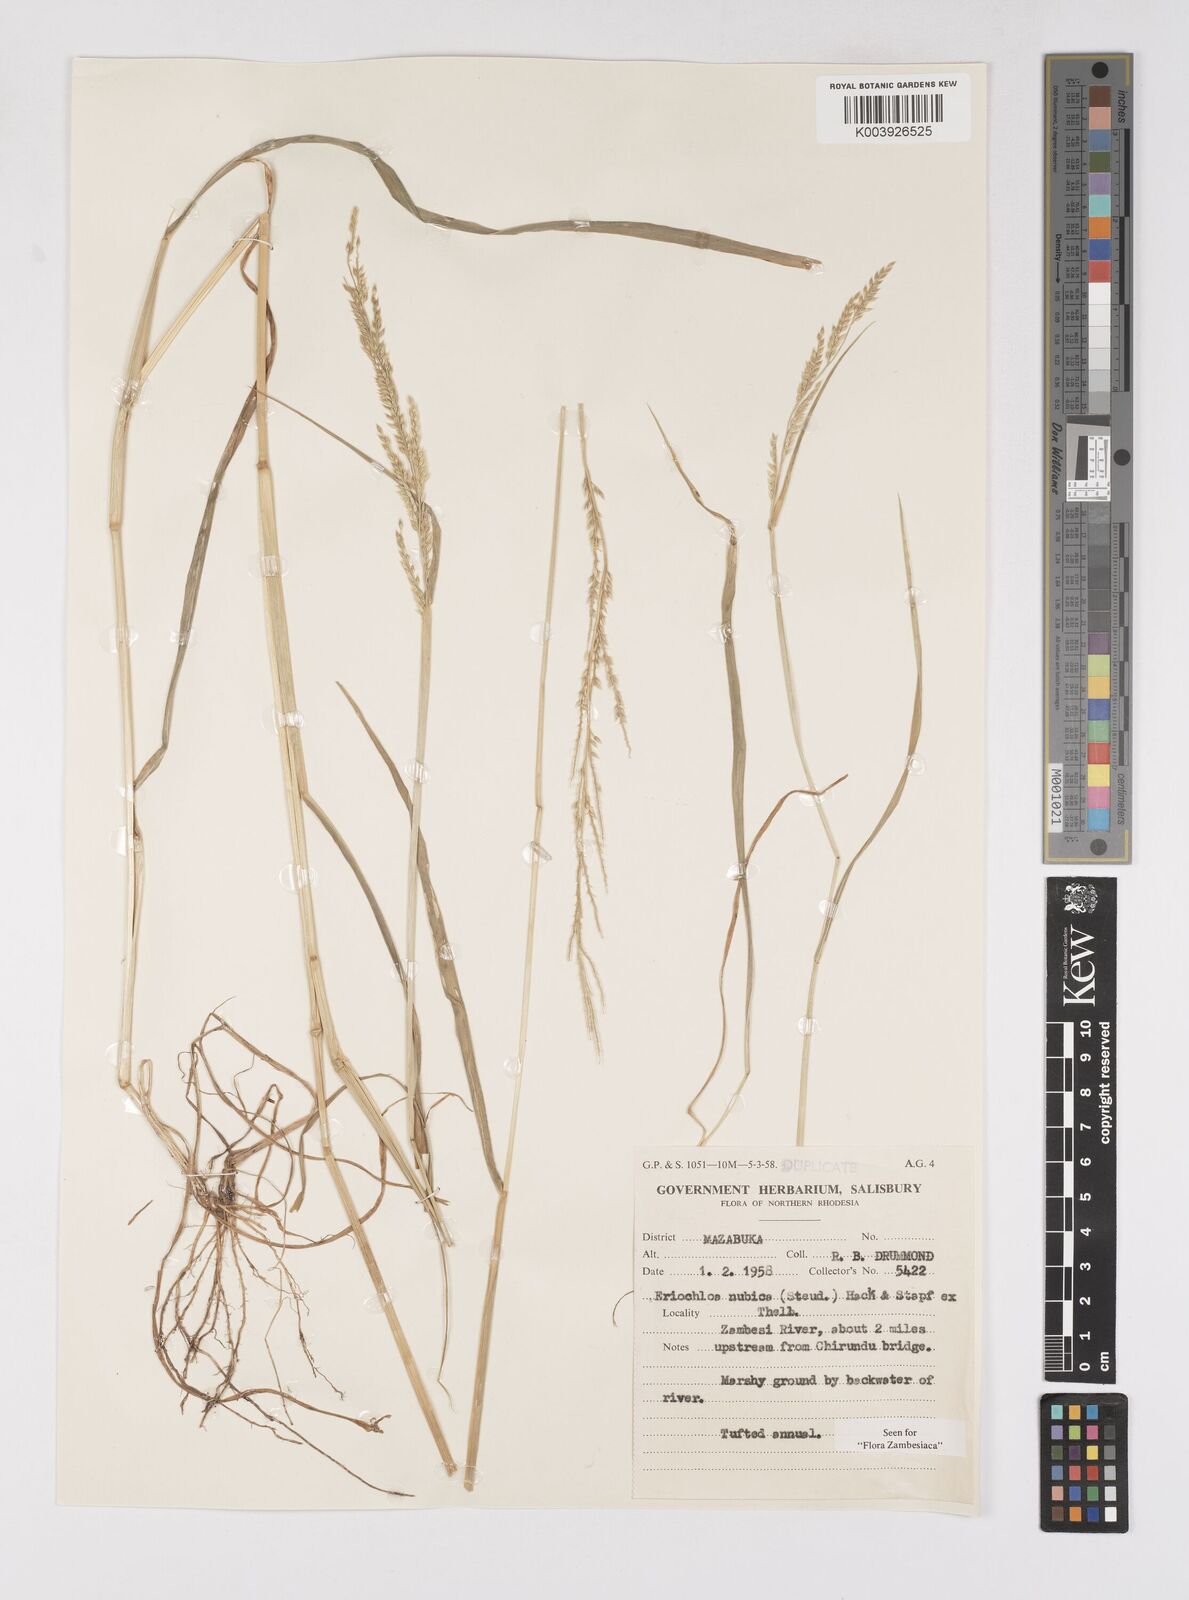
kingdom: Plantae
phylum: Tracheophyta
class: Liliopsida
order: Poales
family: Poaceae
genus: Eriochloa
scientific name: Eriochloa barbatus
